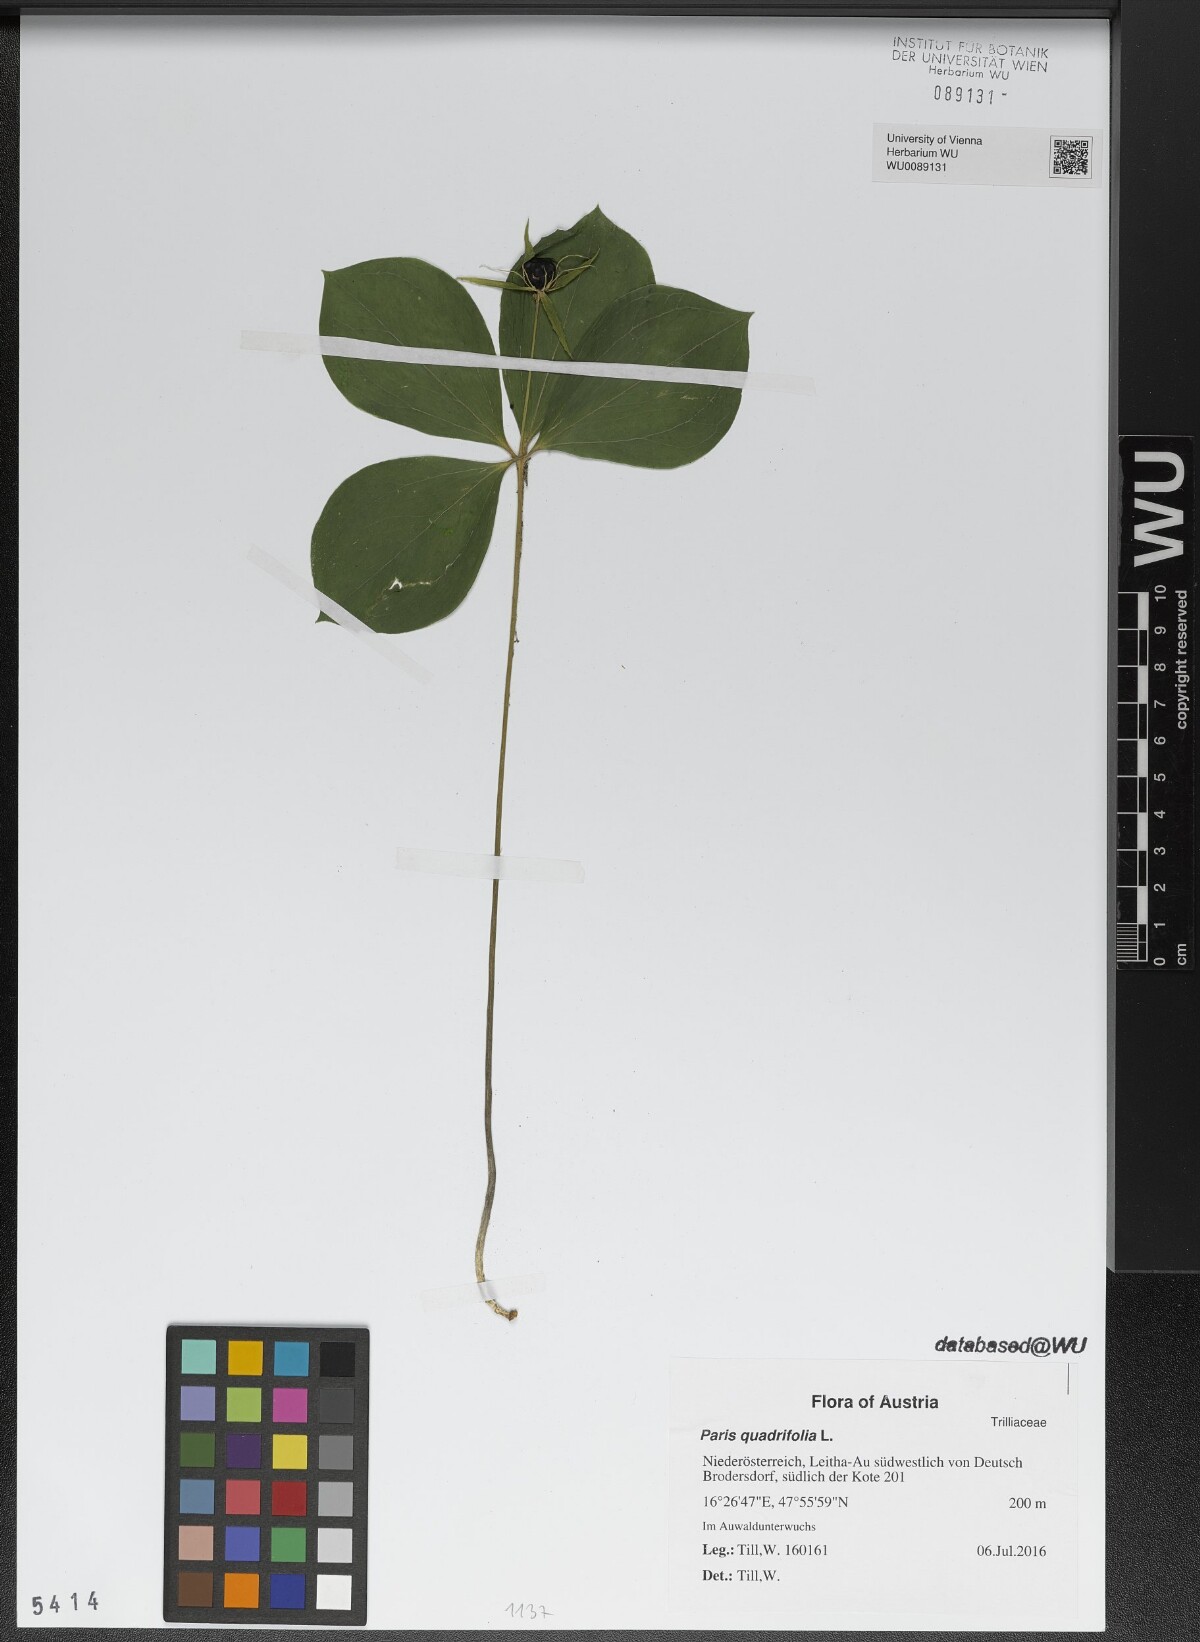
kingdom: Plantae
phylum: Tracheophyta
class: Liliopsida
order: Liliales
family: Melanthiaceae
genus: Paris
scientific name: Paris quadrifolia
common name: Herb-paris
